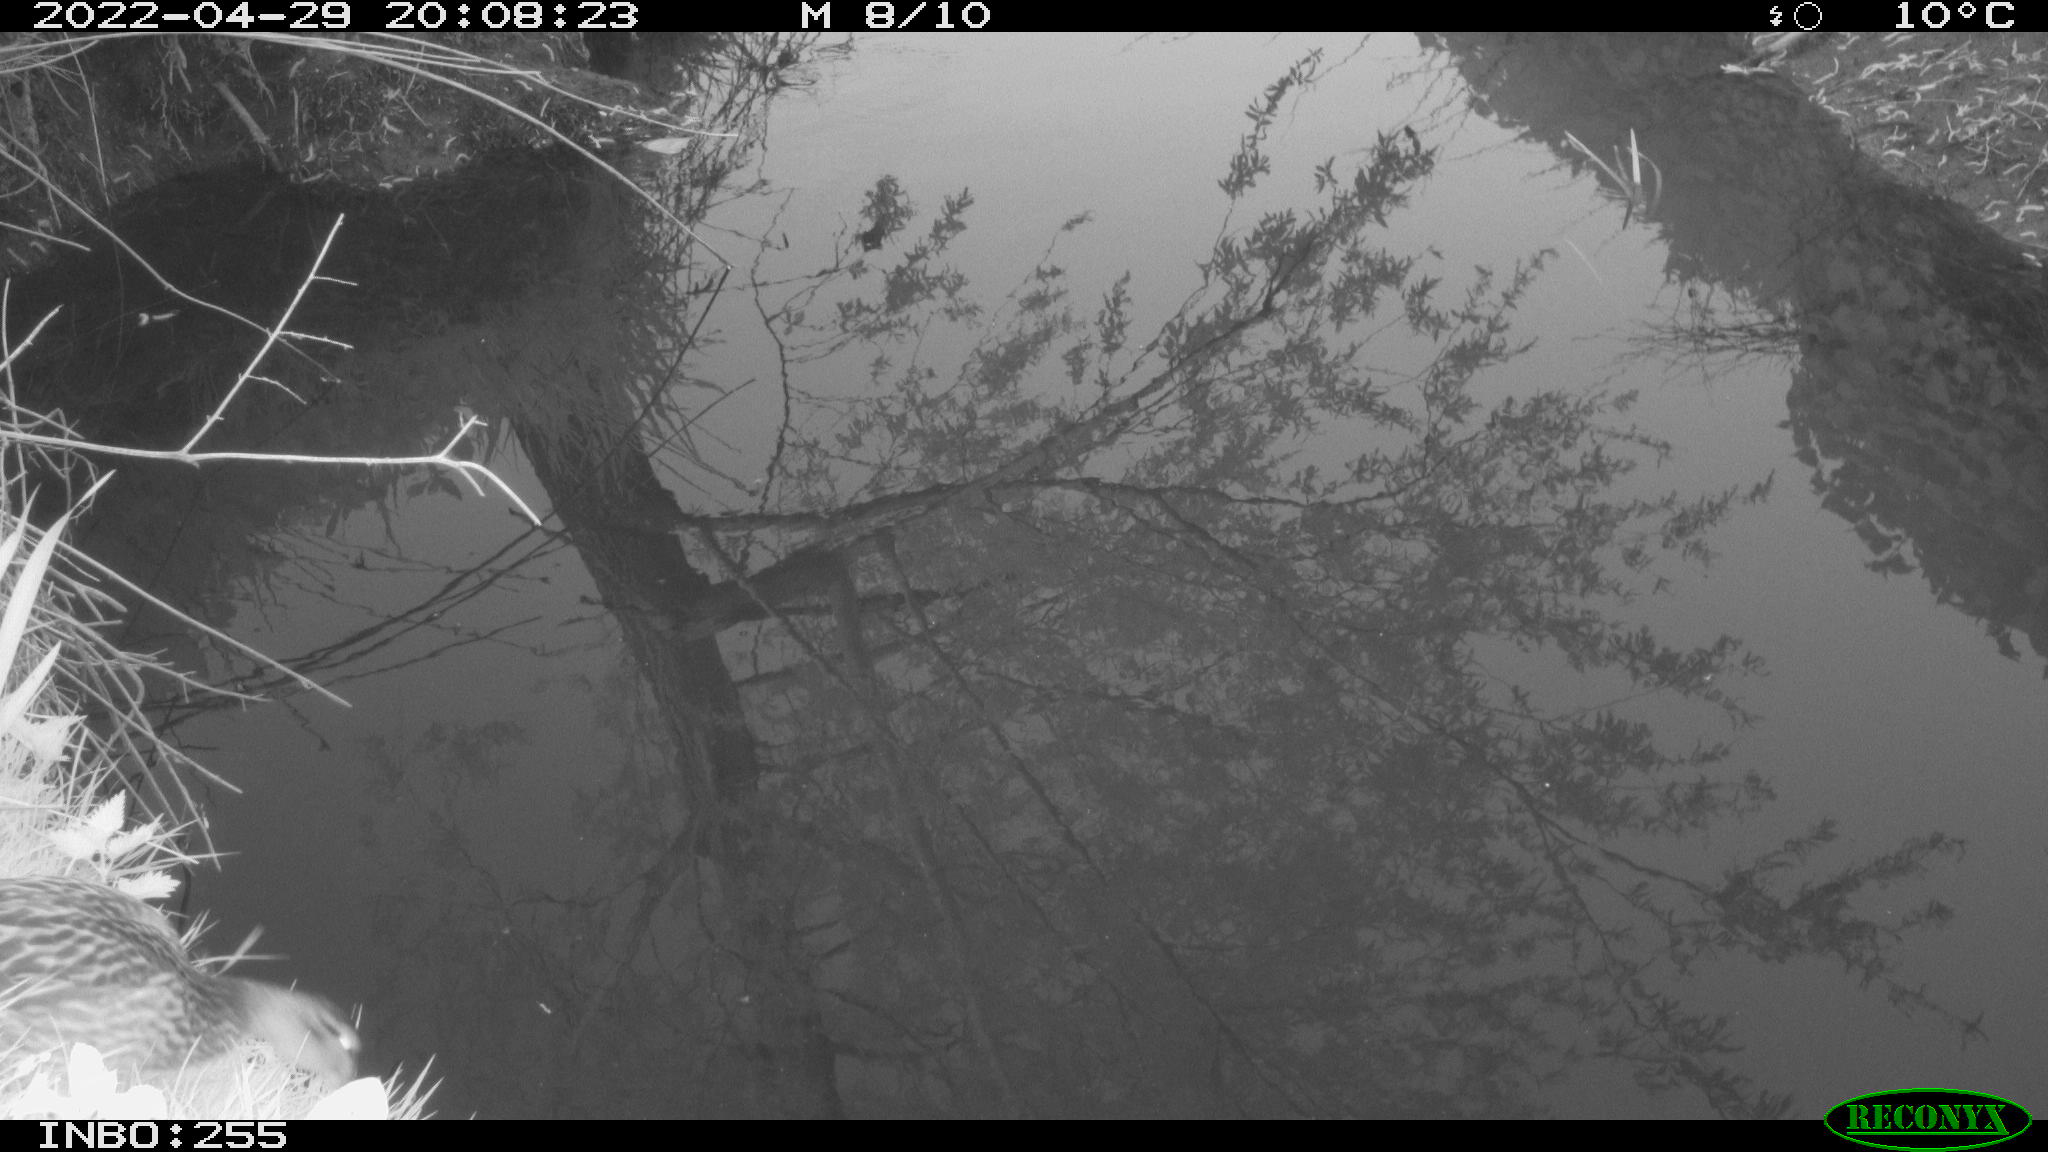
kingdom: Animalia
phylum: Chordata
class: Aves
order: Anseriformes
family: Anatidae
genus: Anas
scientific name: Anas platyrhynchos
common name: Mallard
